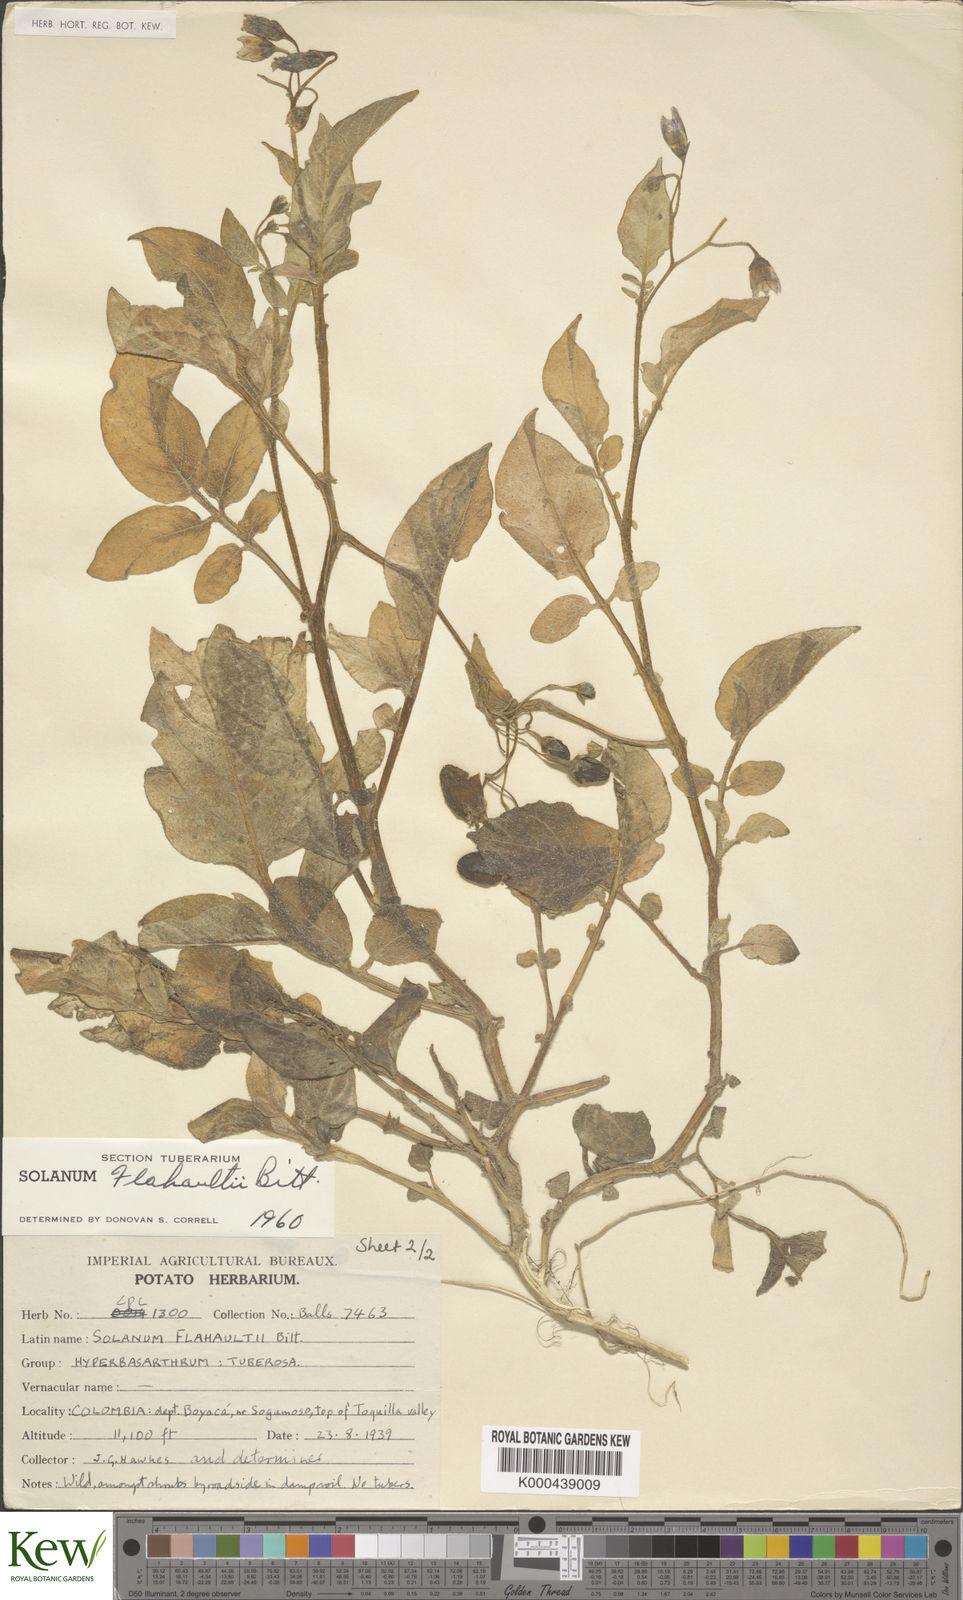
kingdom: Plantae
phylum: Tracheophyta
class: Magnoliopsida
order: Solanales
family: Solanaceae
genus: Solanum
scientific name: Solanum flahaultii
